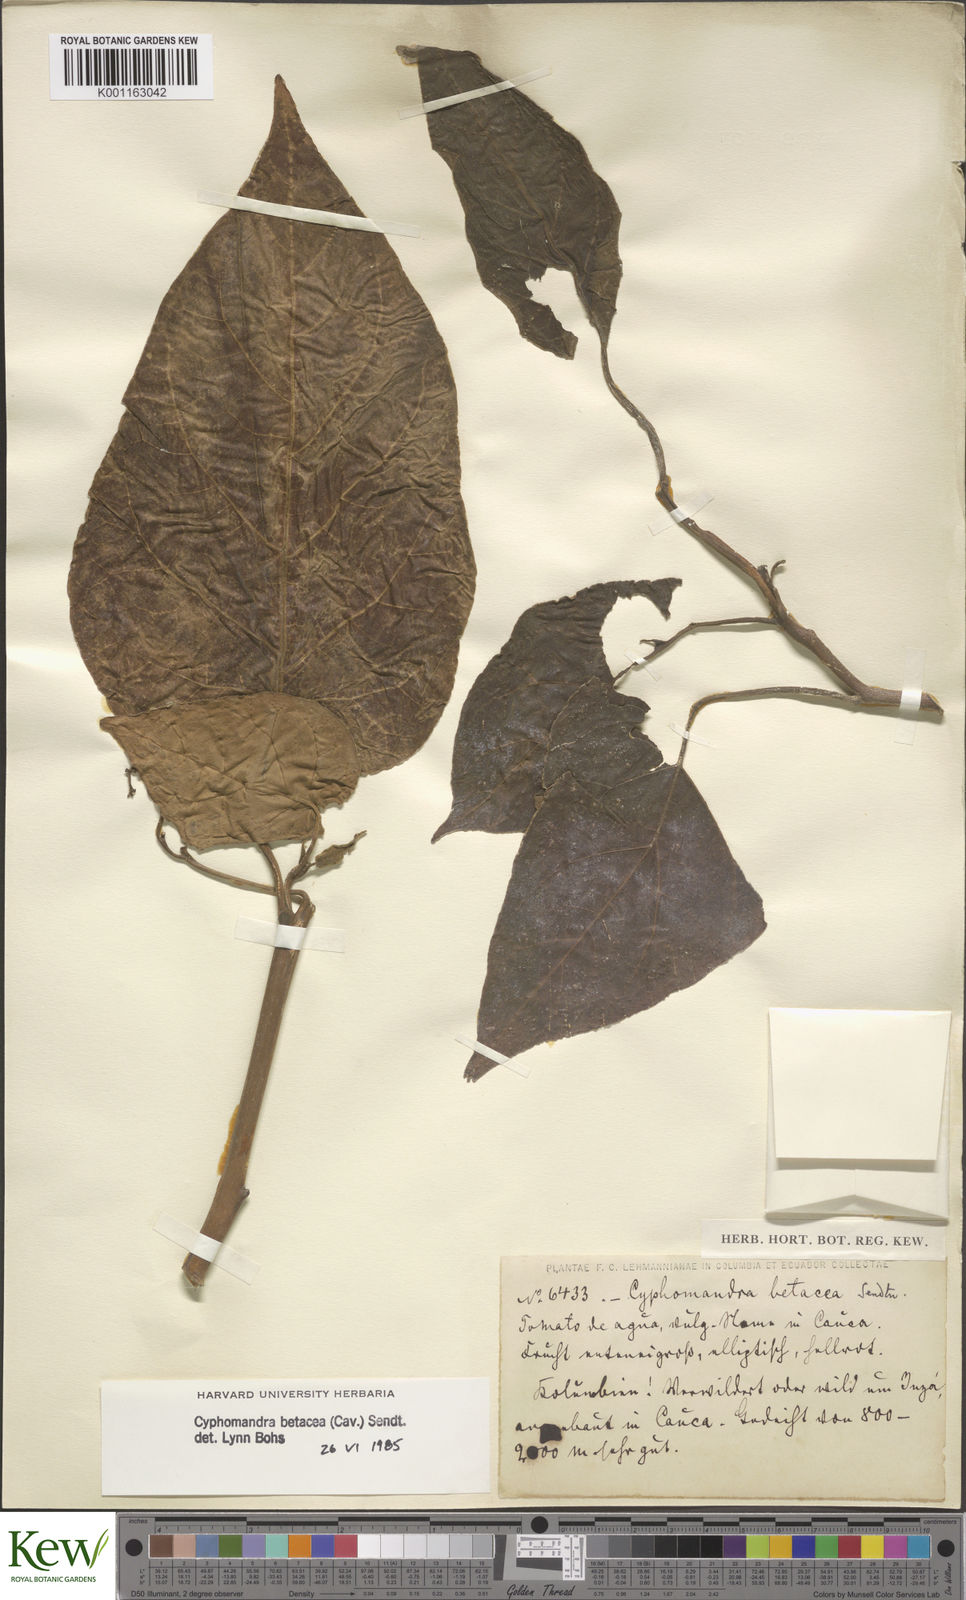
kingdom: Plantae
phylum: Tracheophyta
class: Magnoliopsida
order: Solanales
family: Solanaceae
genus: Solanum
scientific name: Solanum betaceum
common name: Tamarillo
